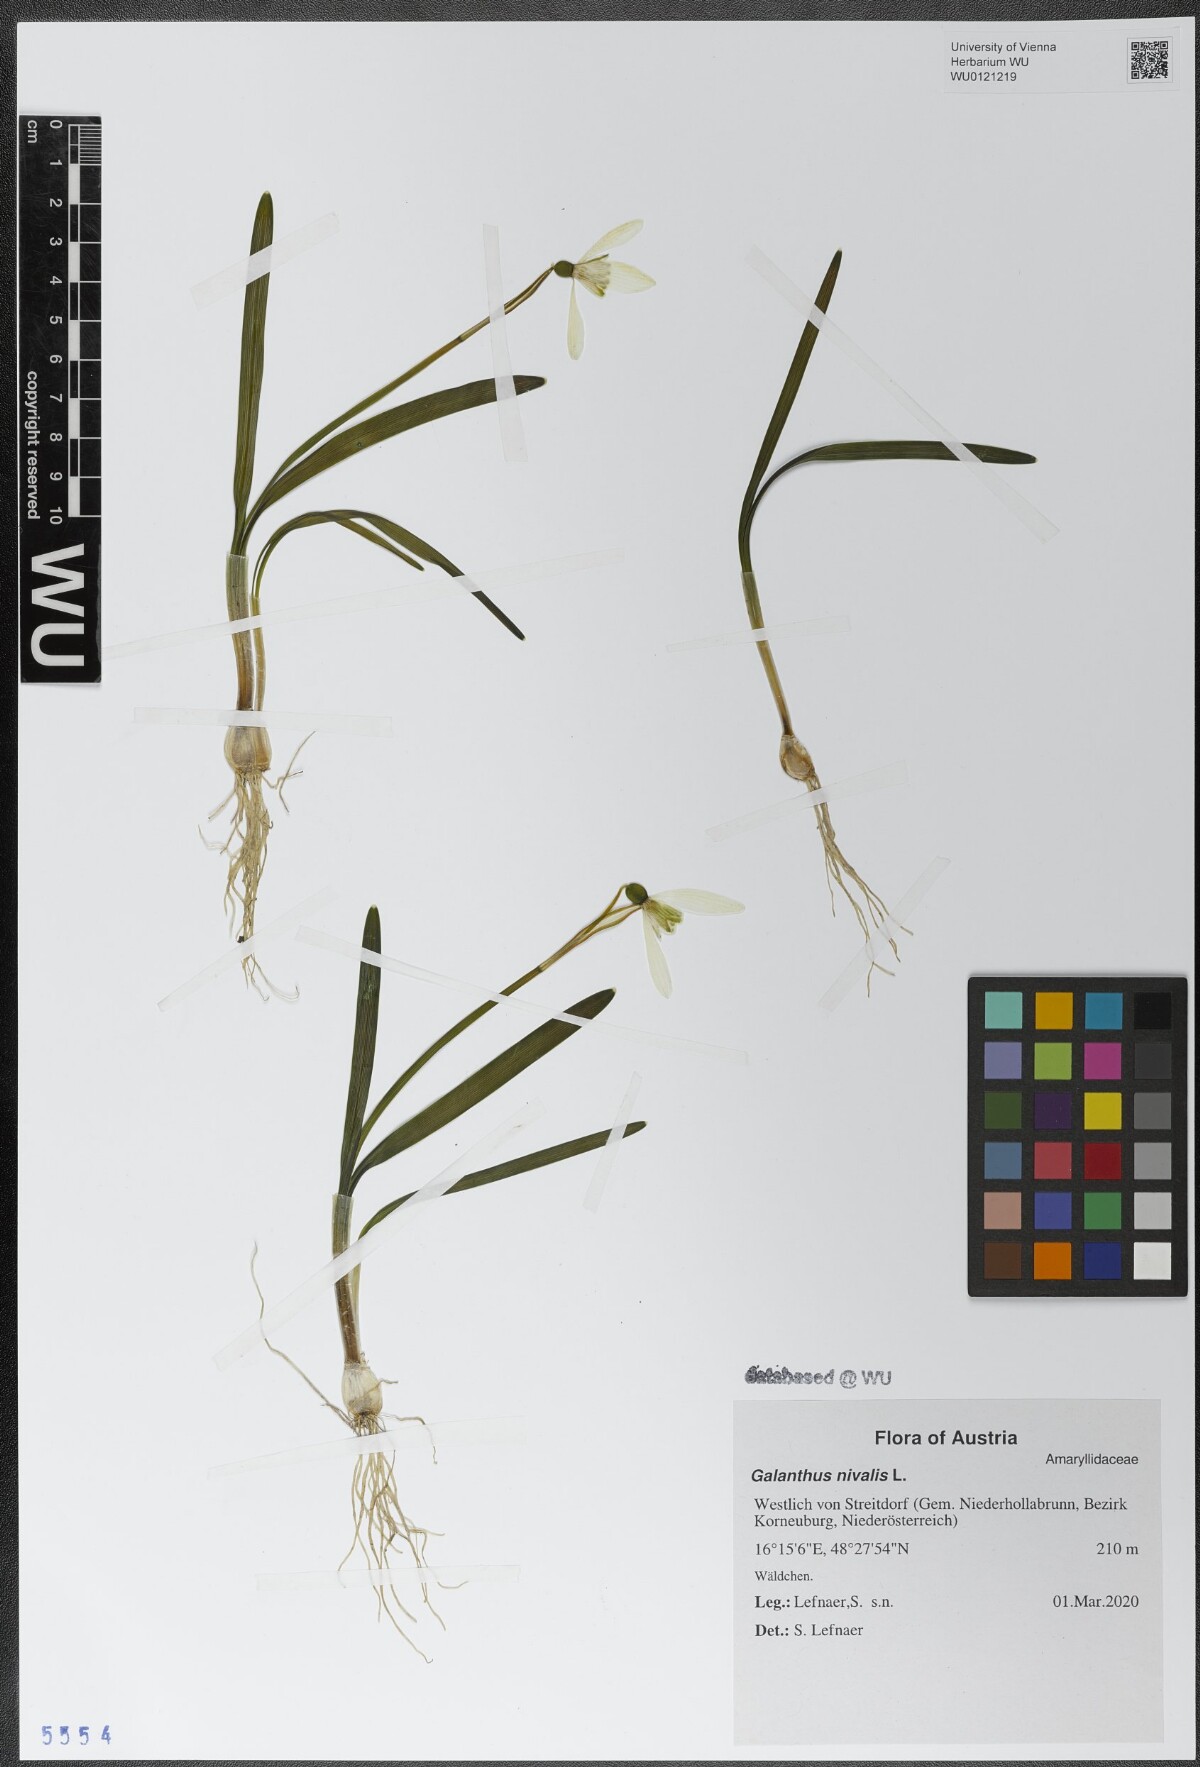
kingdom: Plantae
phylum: Tracheophyta
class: Liliopsida
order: Asparagales
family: Amaryllidaceae
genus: Galanthus
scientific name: Galanthus nivalis
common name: Snowdrop
